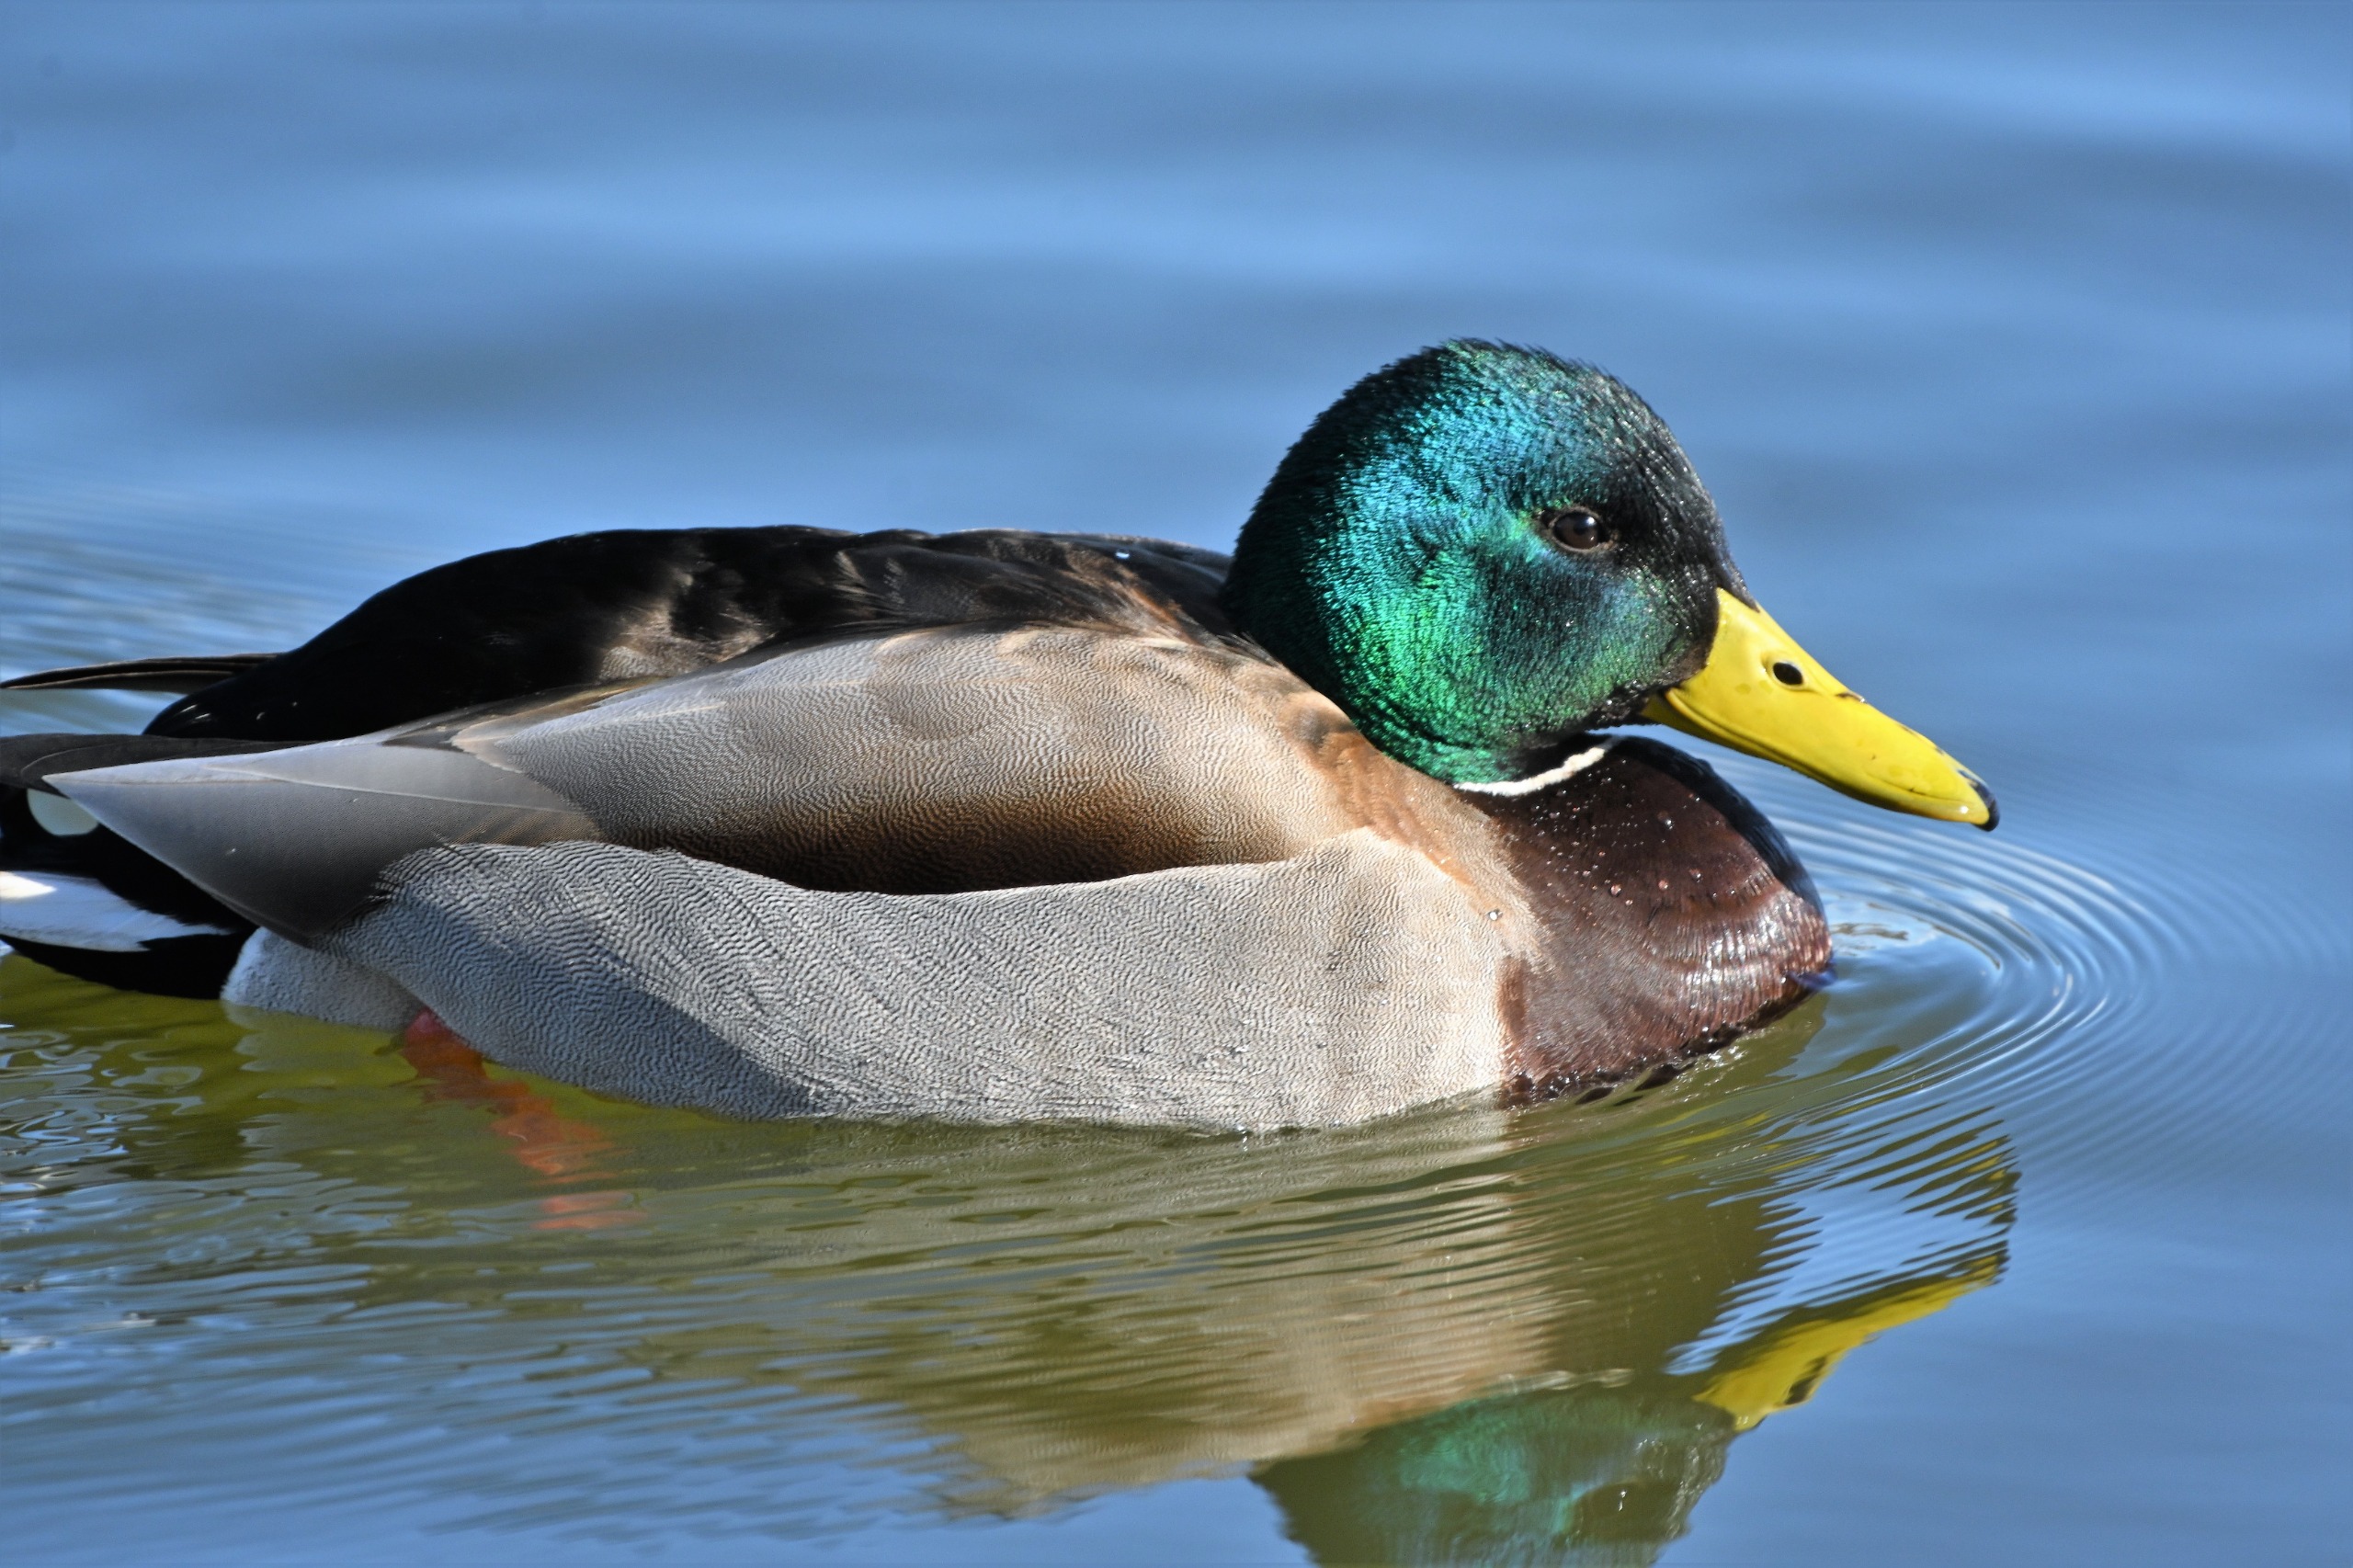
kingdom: Animalia
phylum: Chordata
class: Aves
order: Anseriformes
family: Anatidae
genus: Anas
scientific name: Anas platyrhynchos
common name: Gråand
